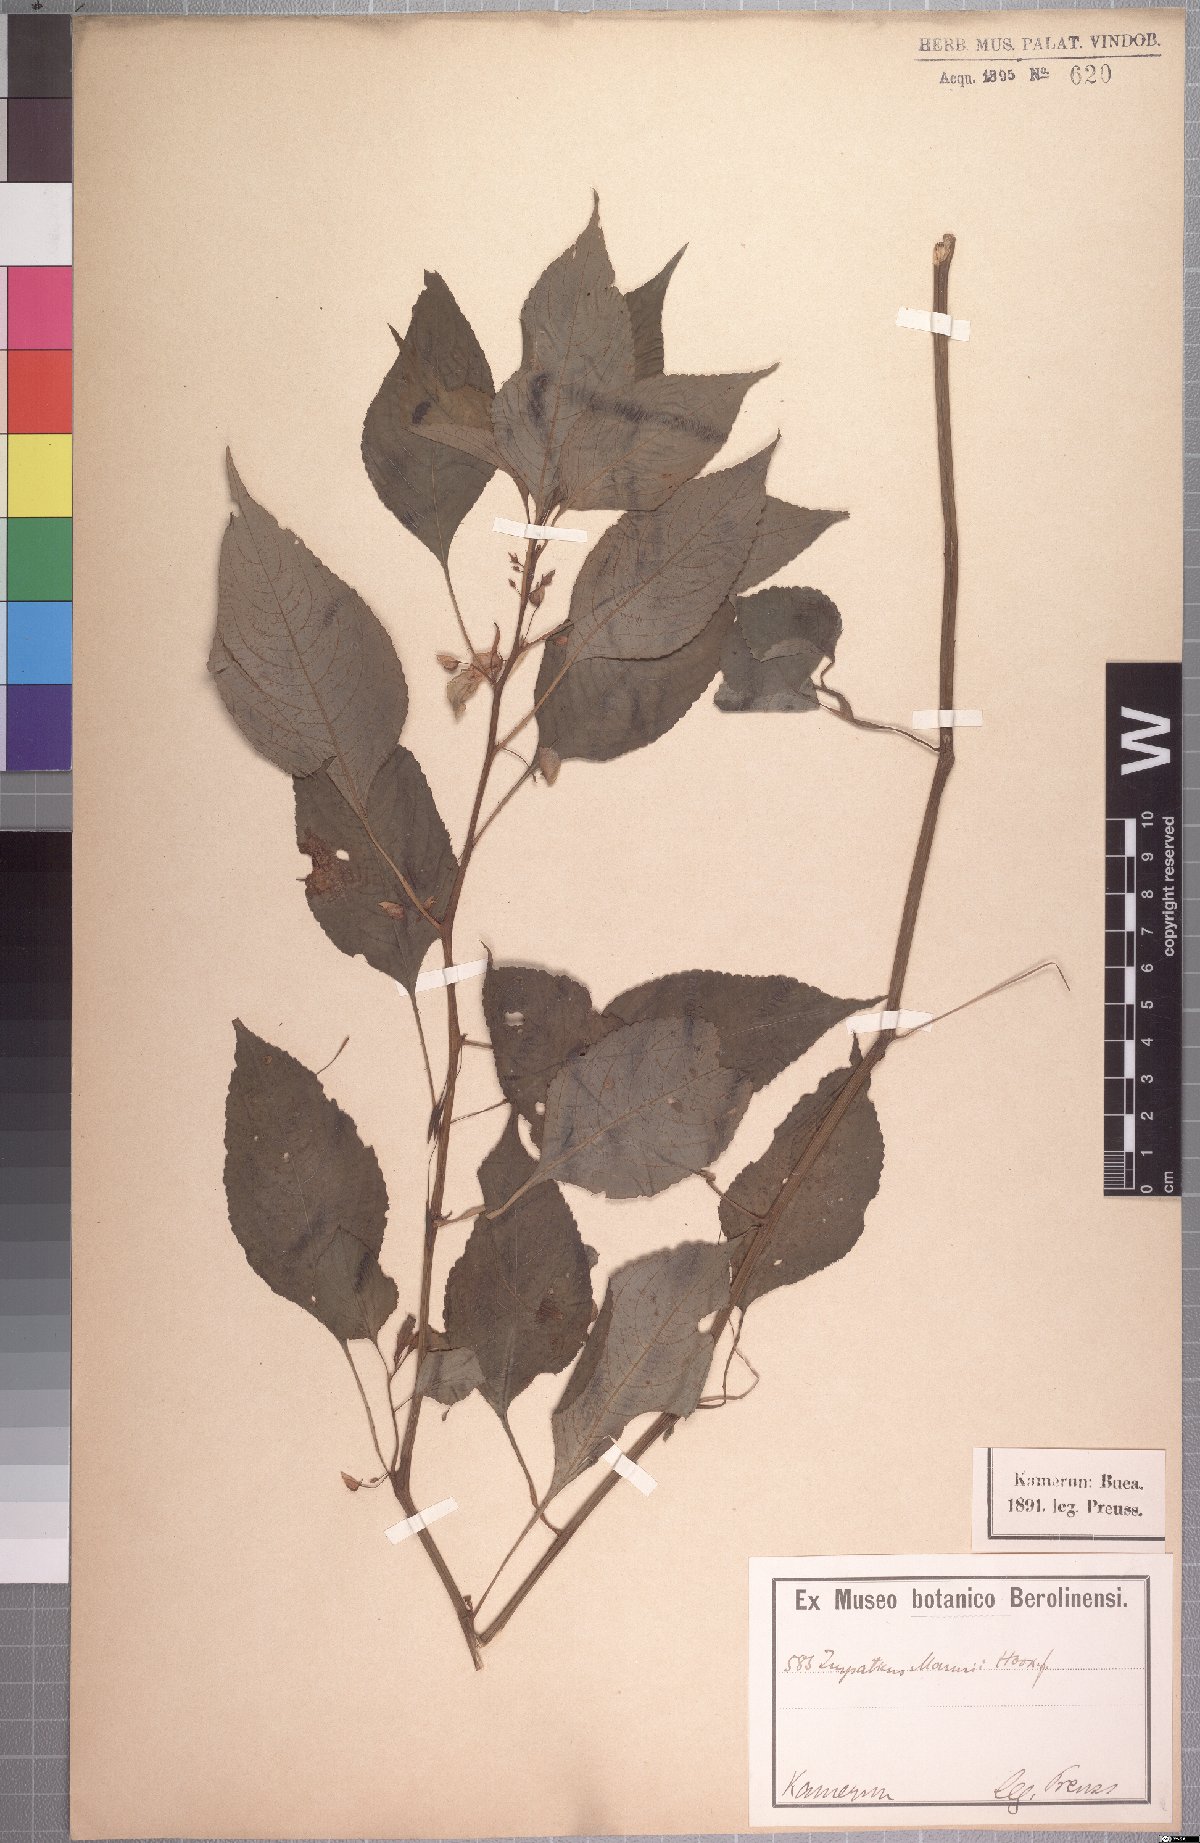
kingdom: Plantae
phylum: Tracheophyta
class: Magnoliopsida
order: Ericales
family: Balsaminaceae
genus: Impatiens
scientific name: Impatiens mannii
